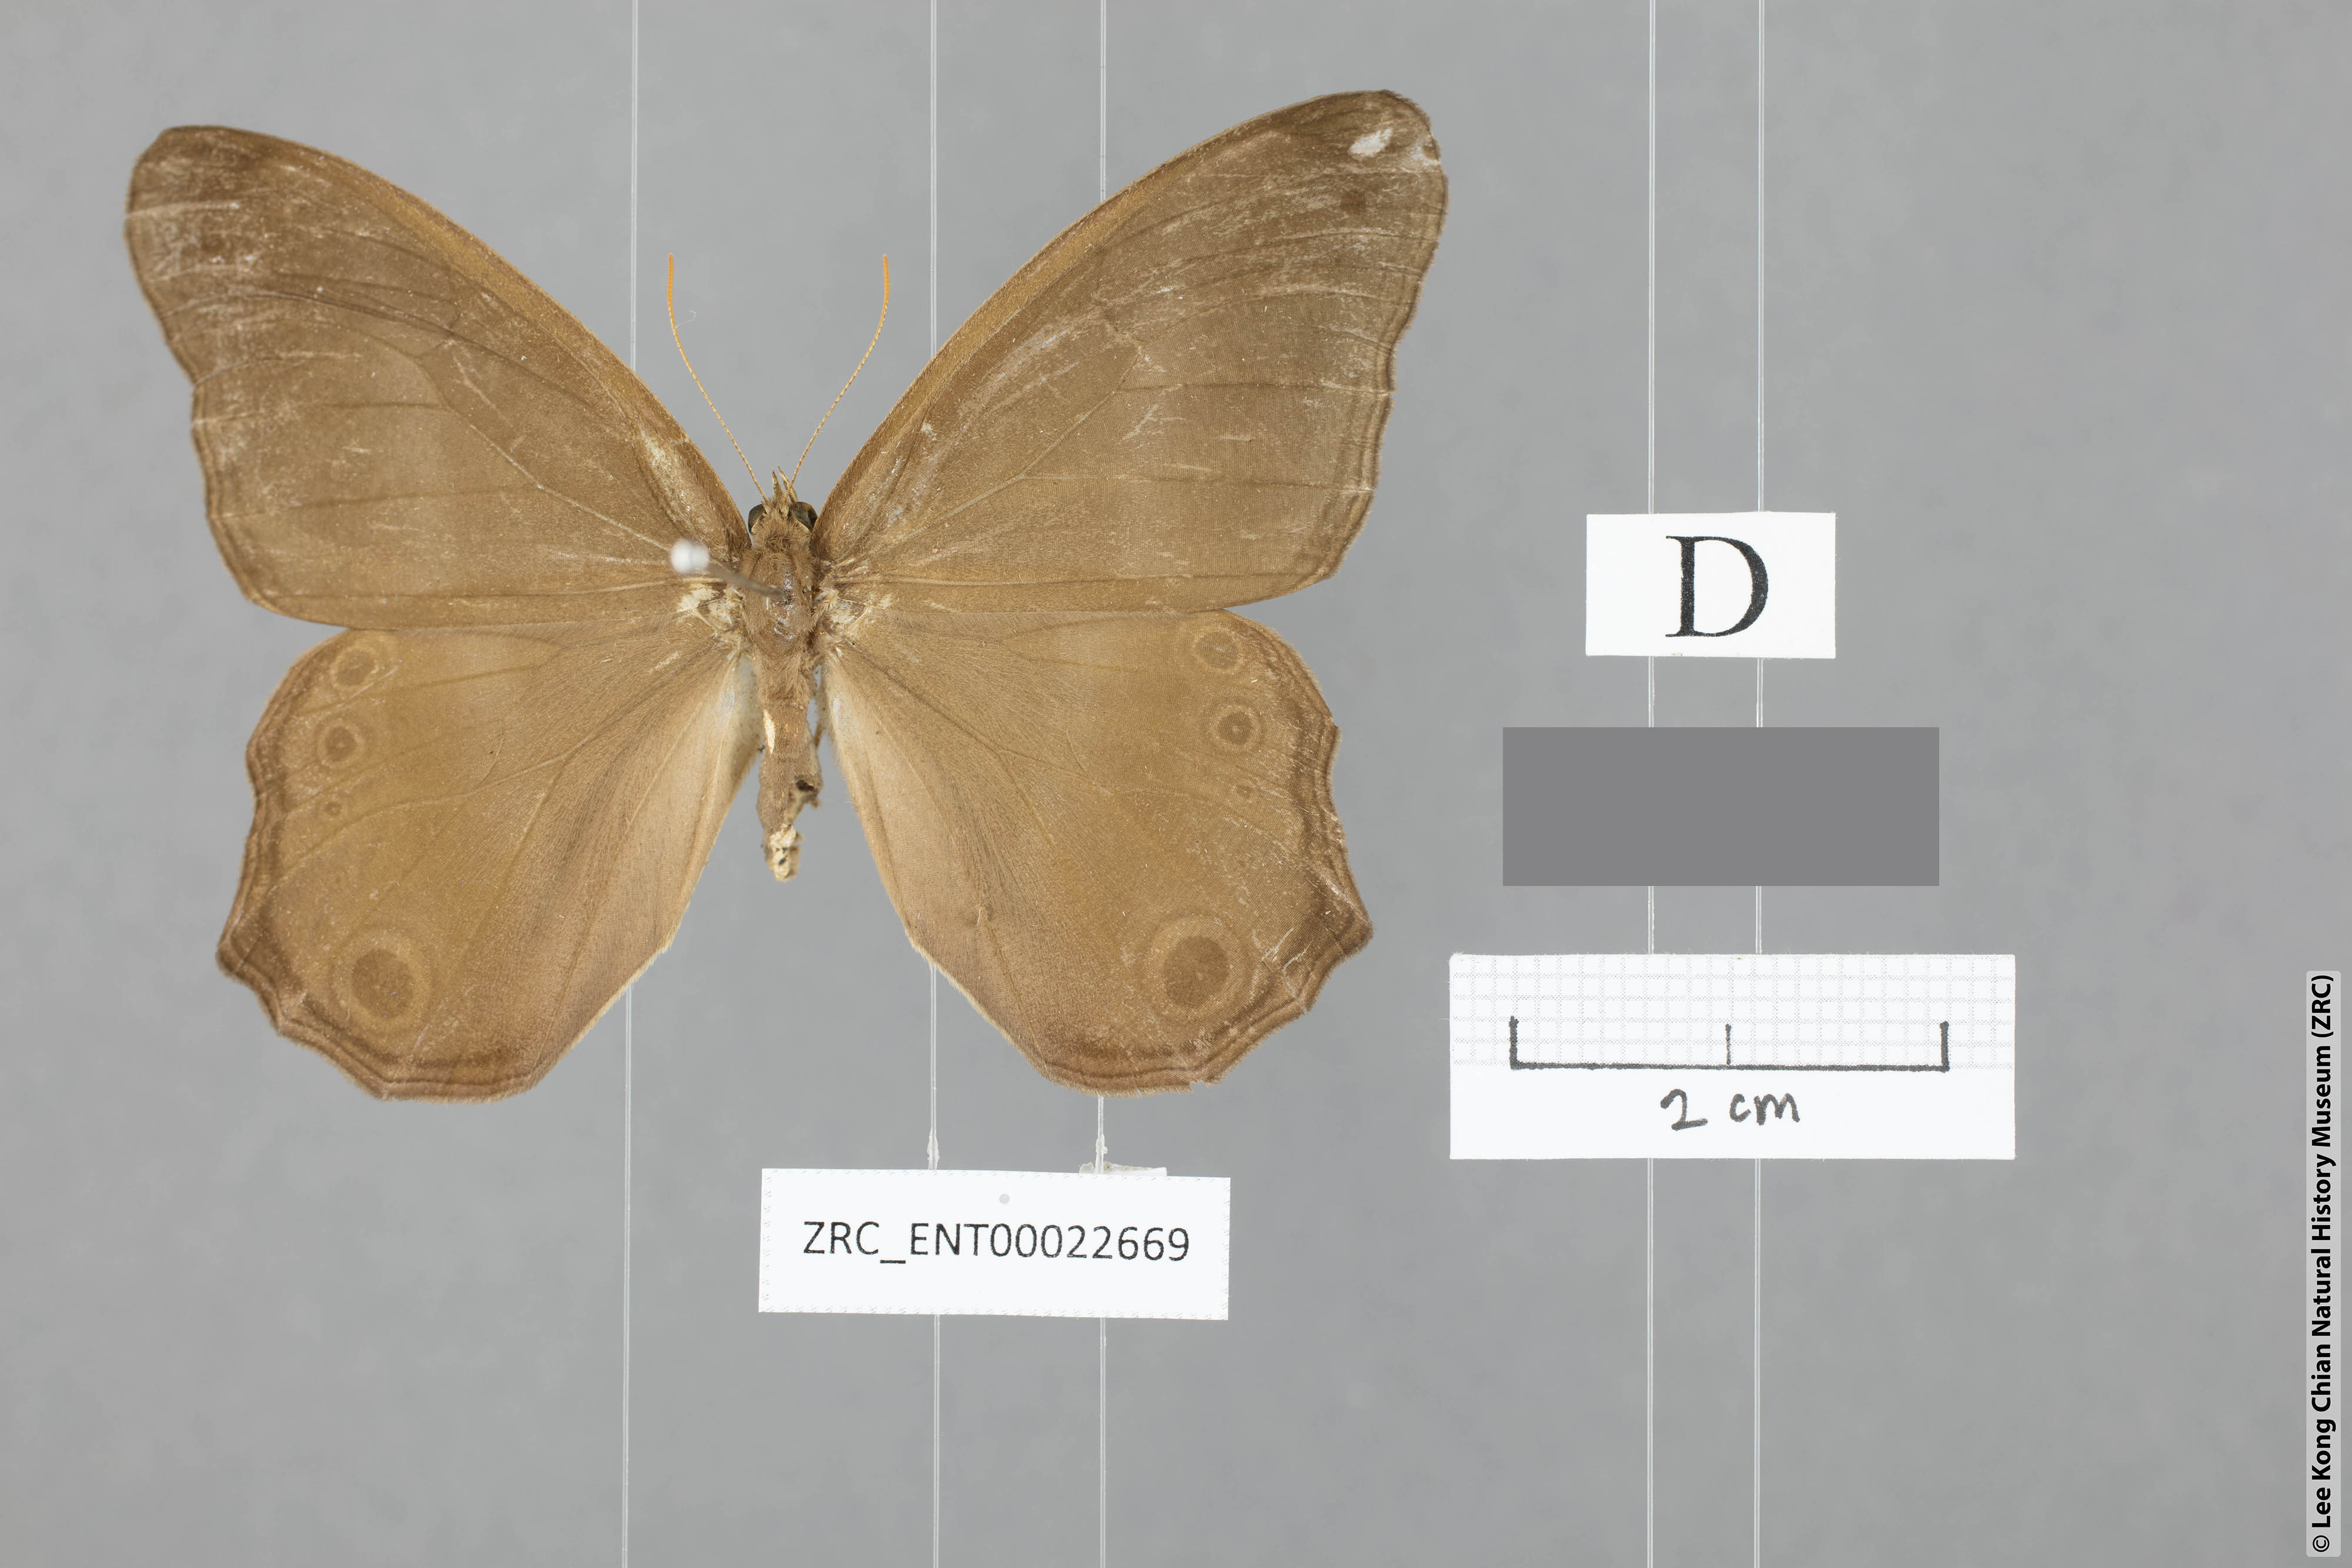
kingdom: Animalia
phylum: Arthropoda
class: Insecta
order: Lepidoptera
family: Nymphalidae
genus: Coelites
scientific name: Coelites euptychioides
